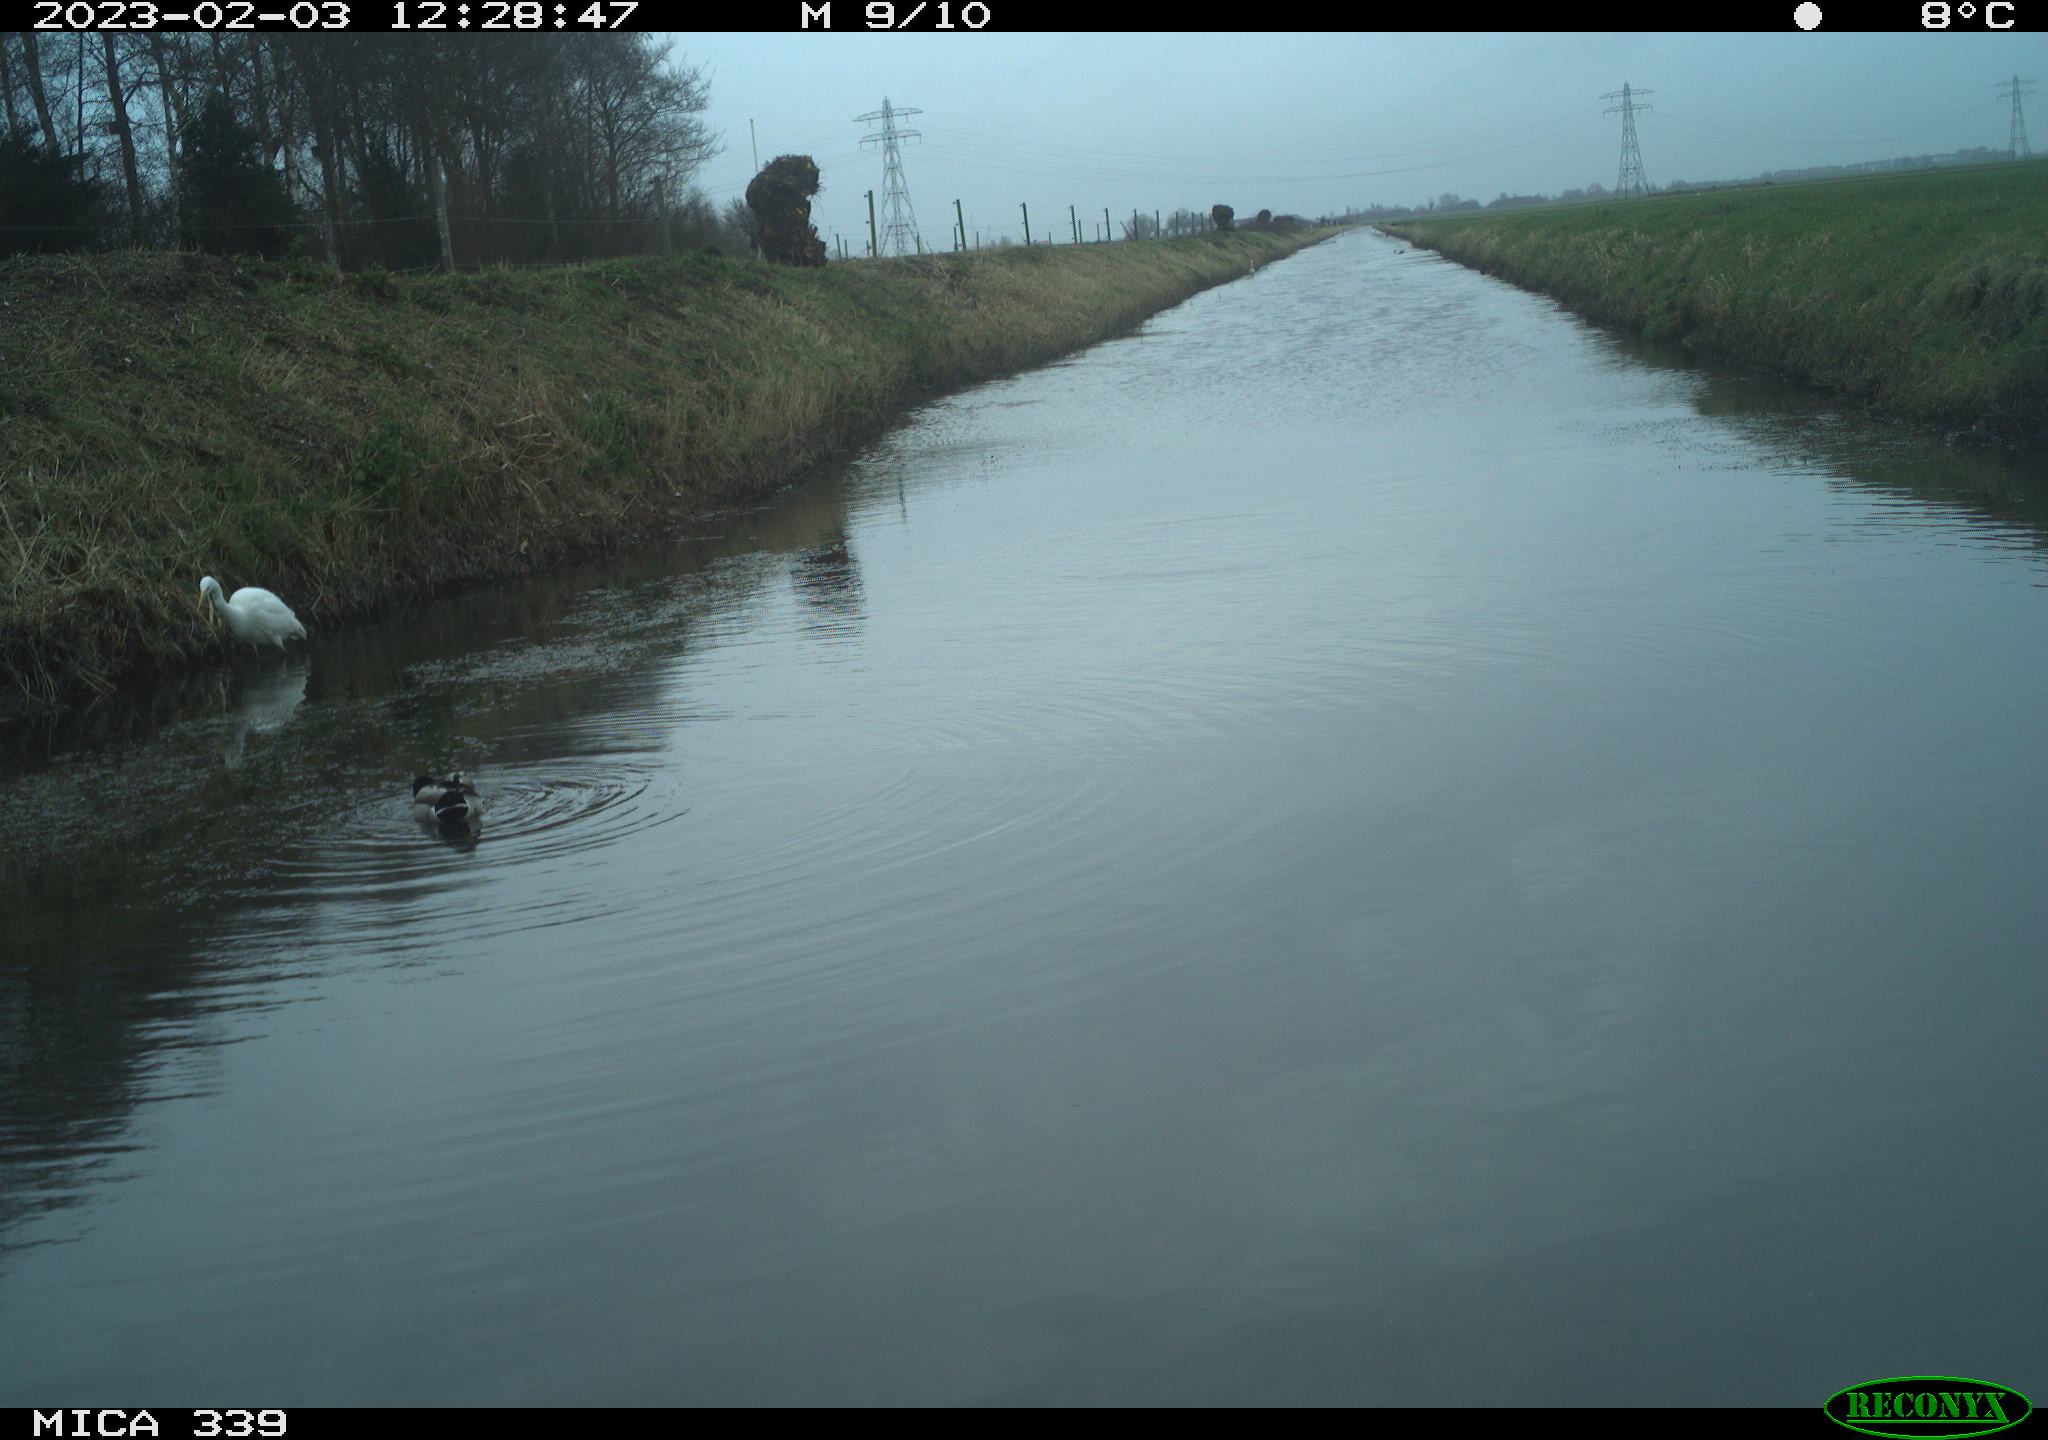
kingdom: Animalia
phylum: Chordata
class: Aves
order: Pelecaniformes
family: Ardeidae
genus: Ardea
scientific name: Ardea alba
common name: Great egret
